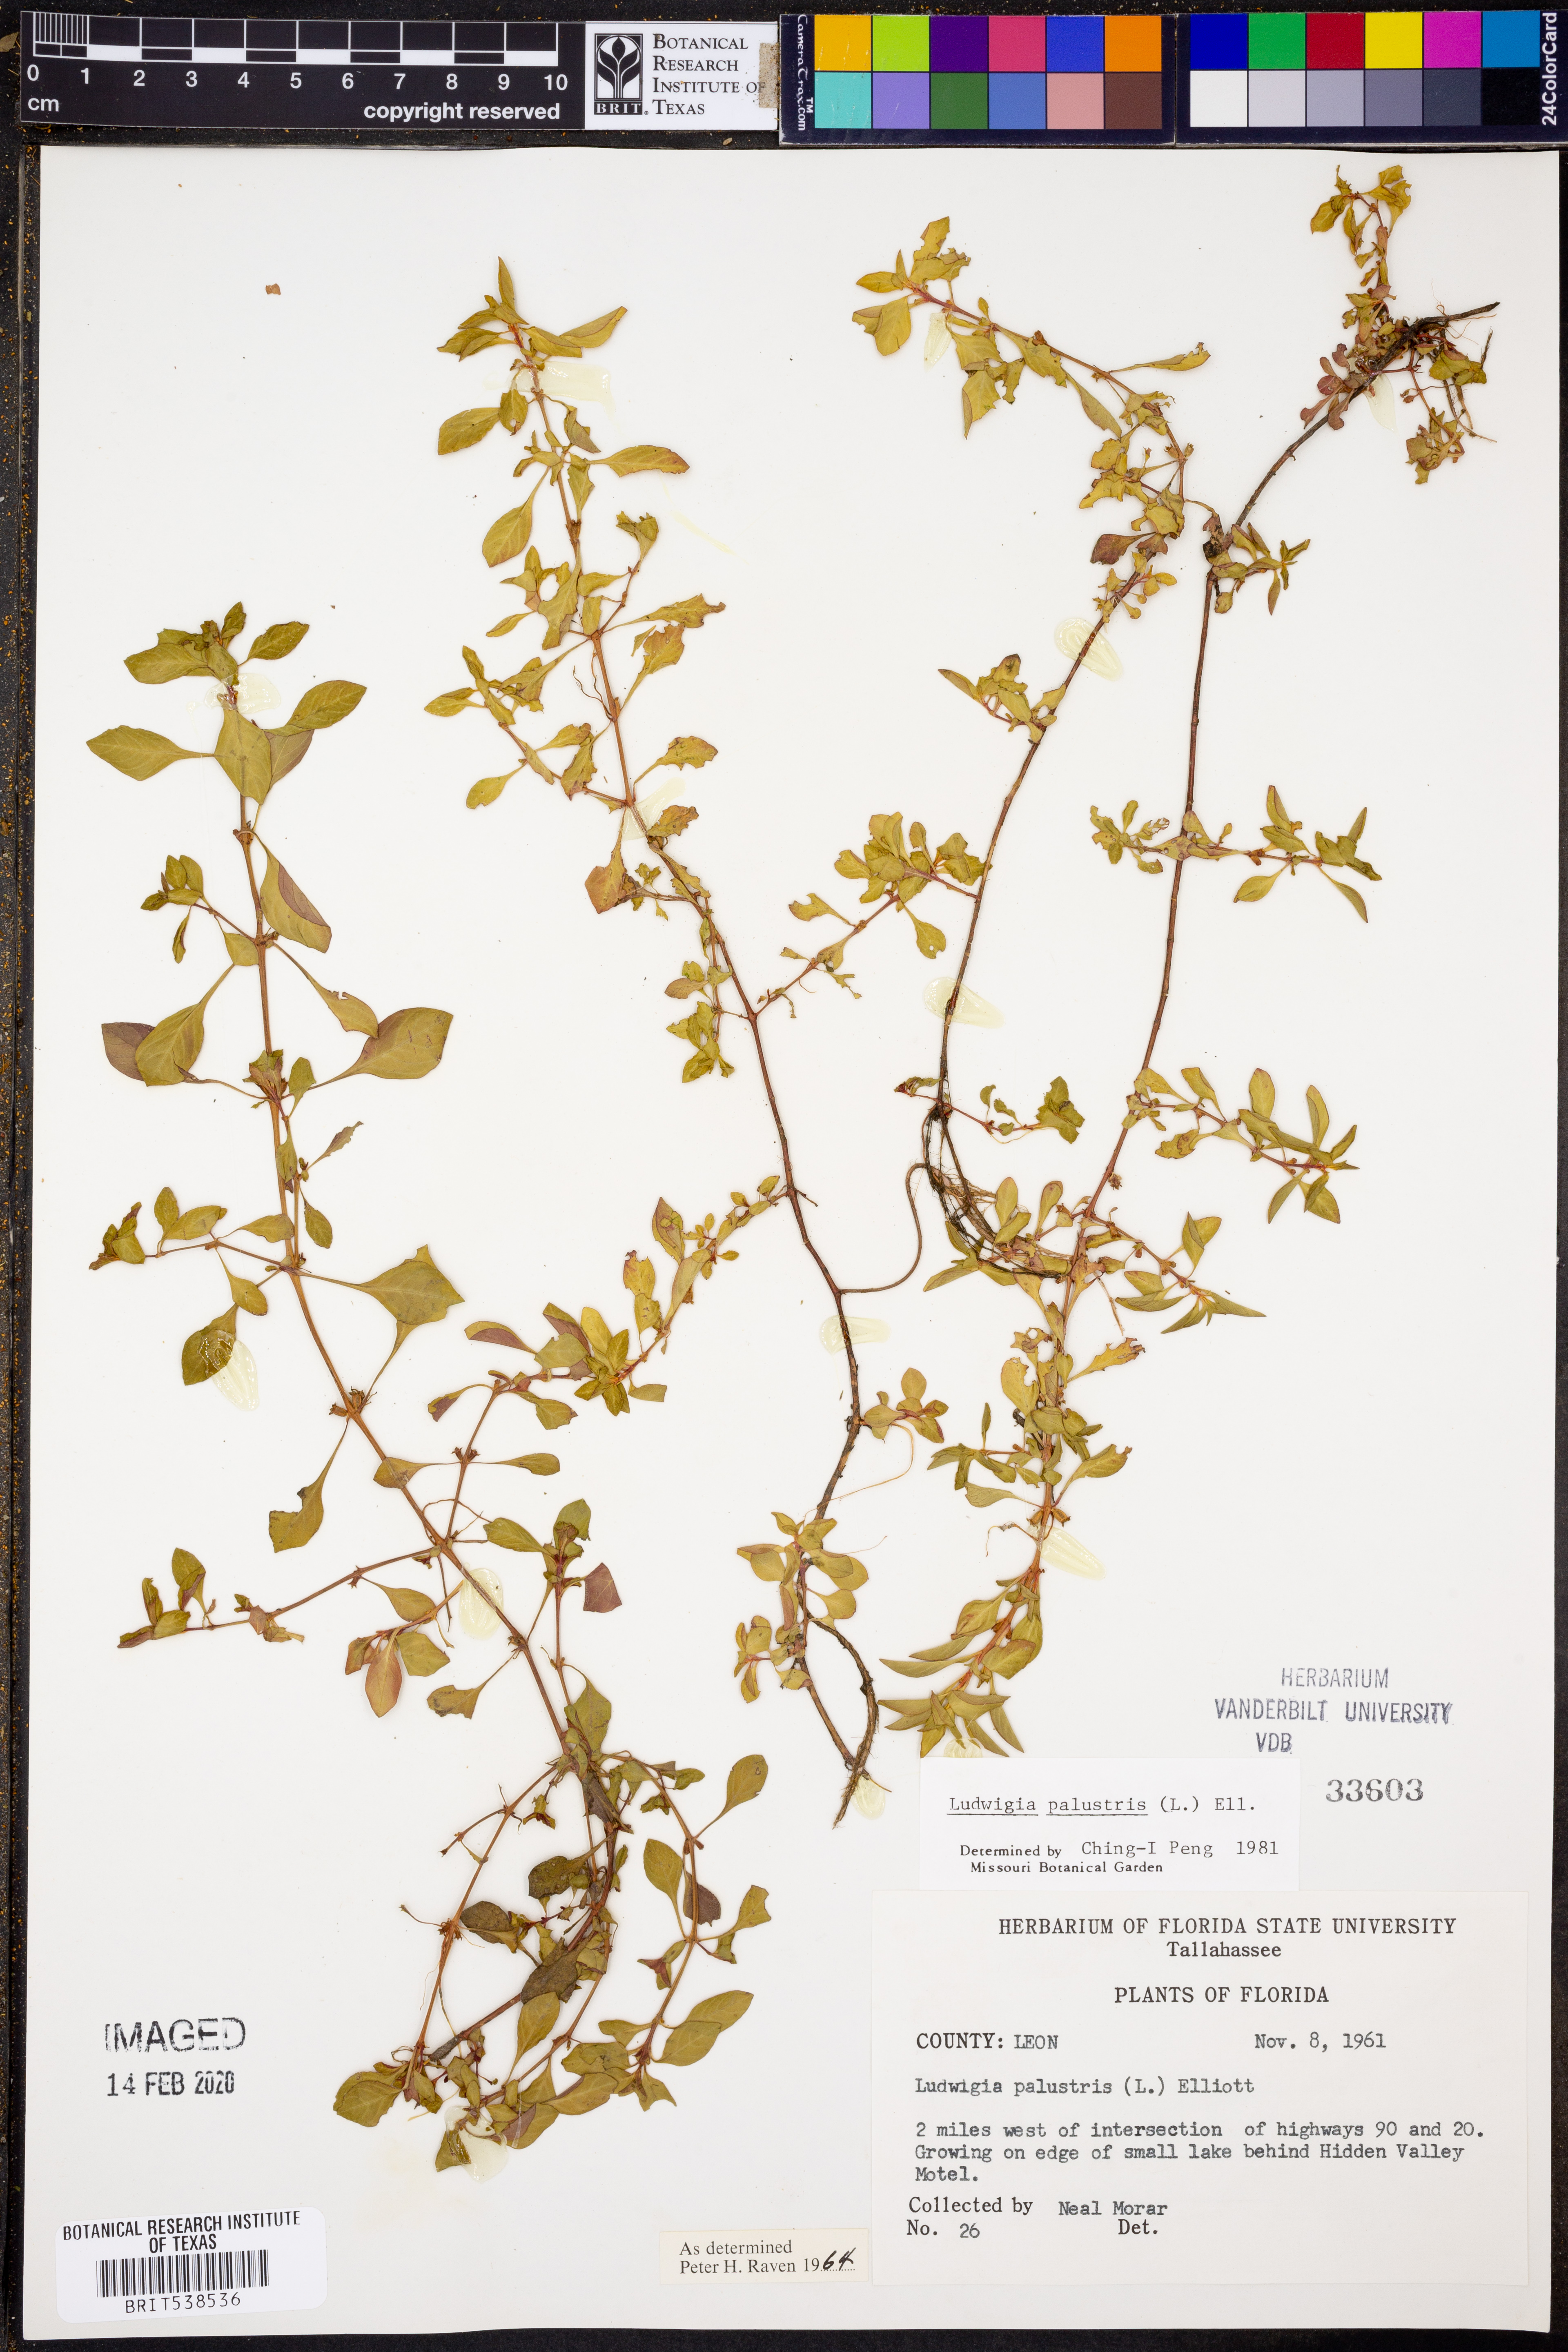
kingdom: Plantae
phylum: Tracheophyta
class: Magnoliopsida
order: Myrtales
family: Onagraceae
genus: Ludwigia
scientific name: Ludwigia palustris
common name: Hampshire-purslane
